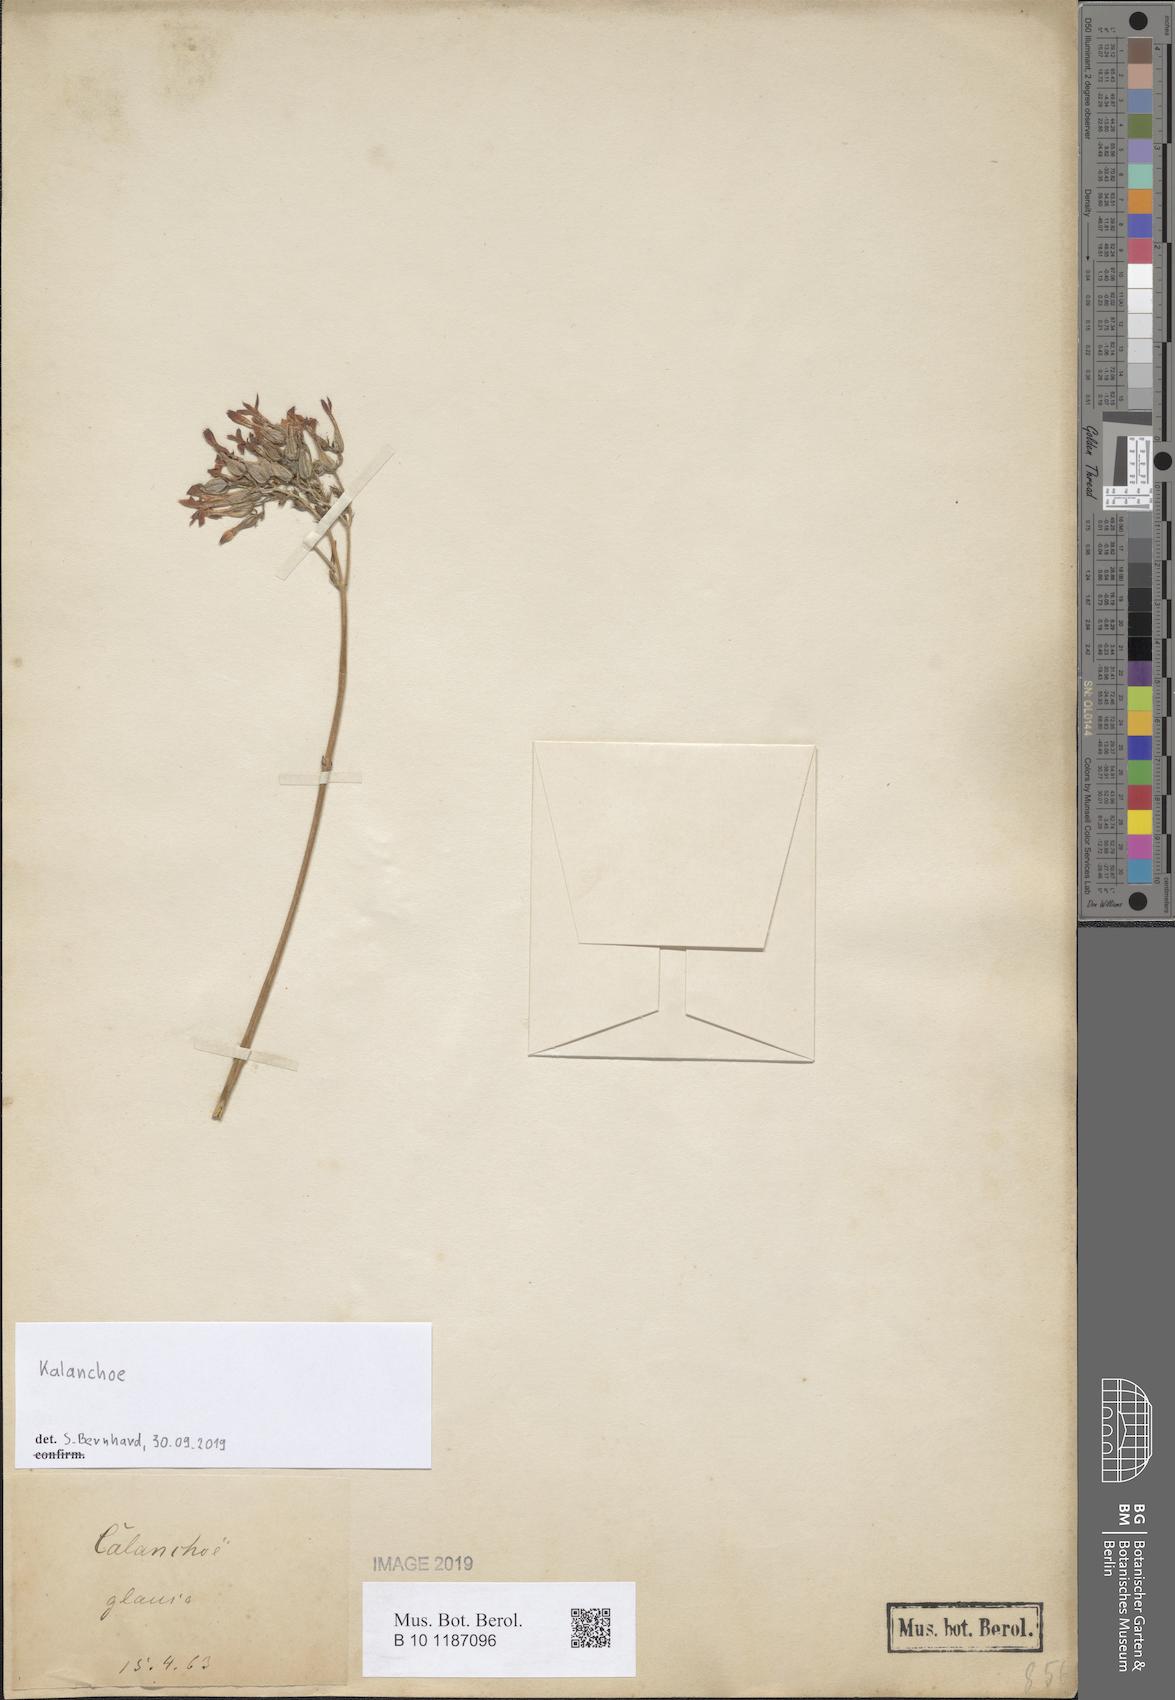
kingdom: Plantae
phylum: Tracheophyta
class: Magnoliopsida
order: Saxifragales
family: Crassulaceae
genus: Kalanchoe
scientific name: Kalanchoe
